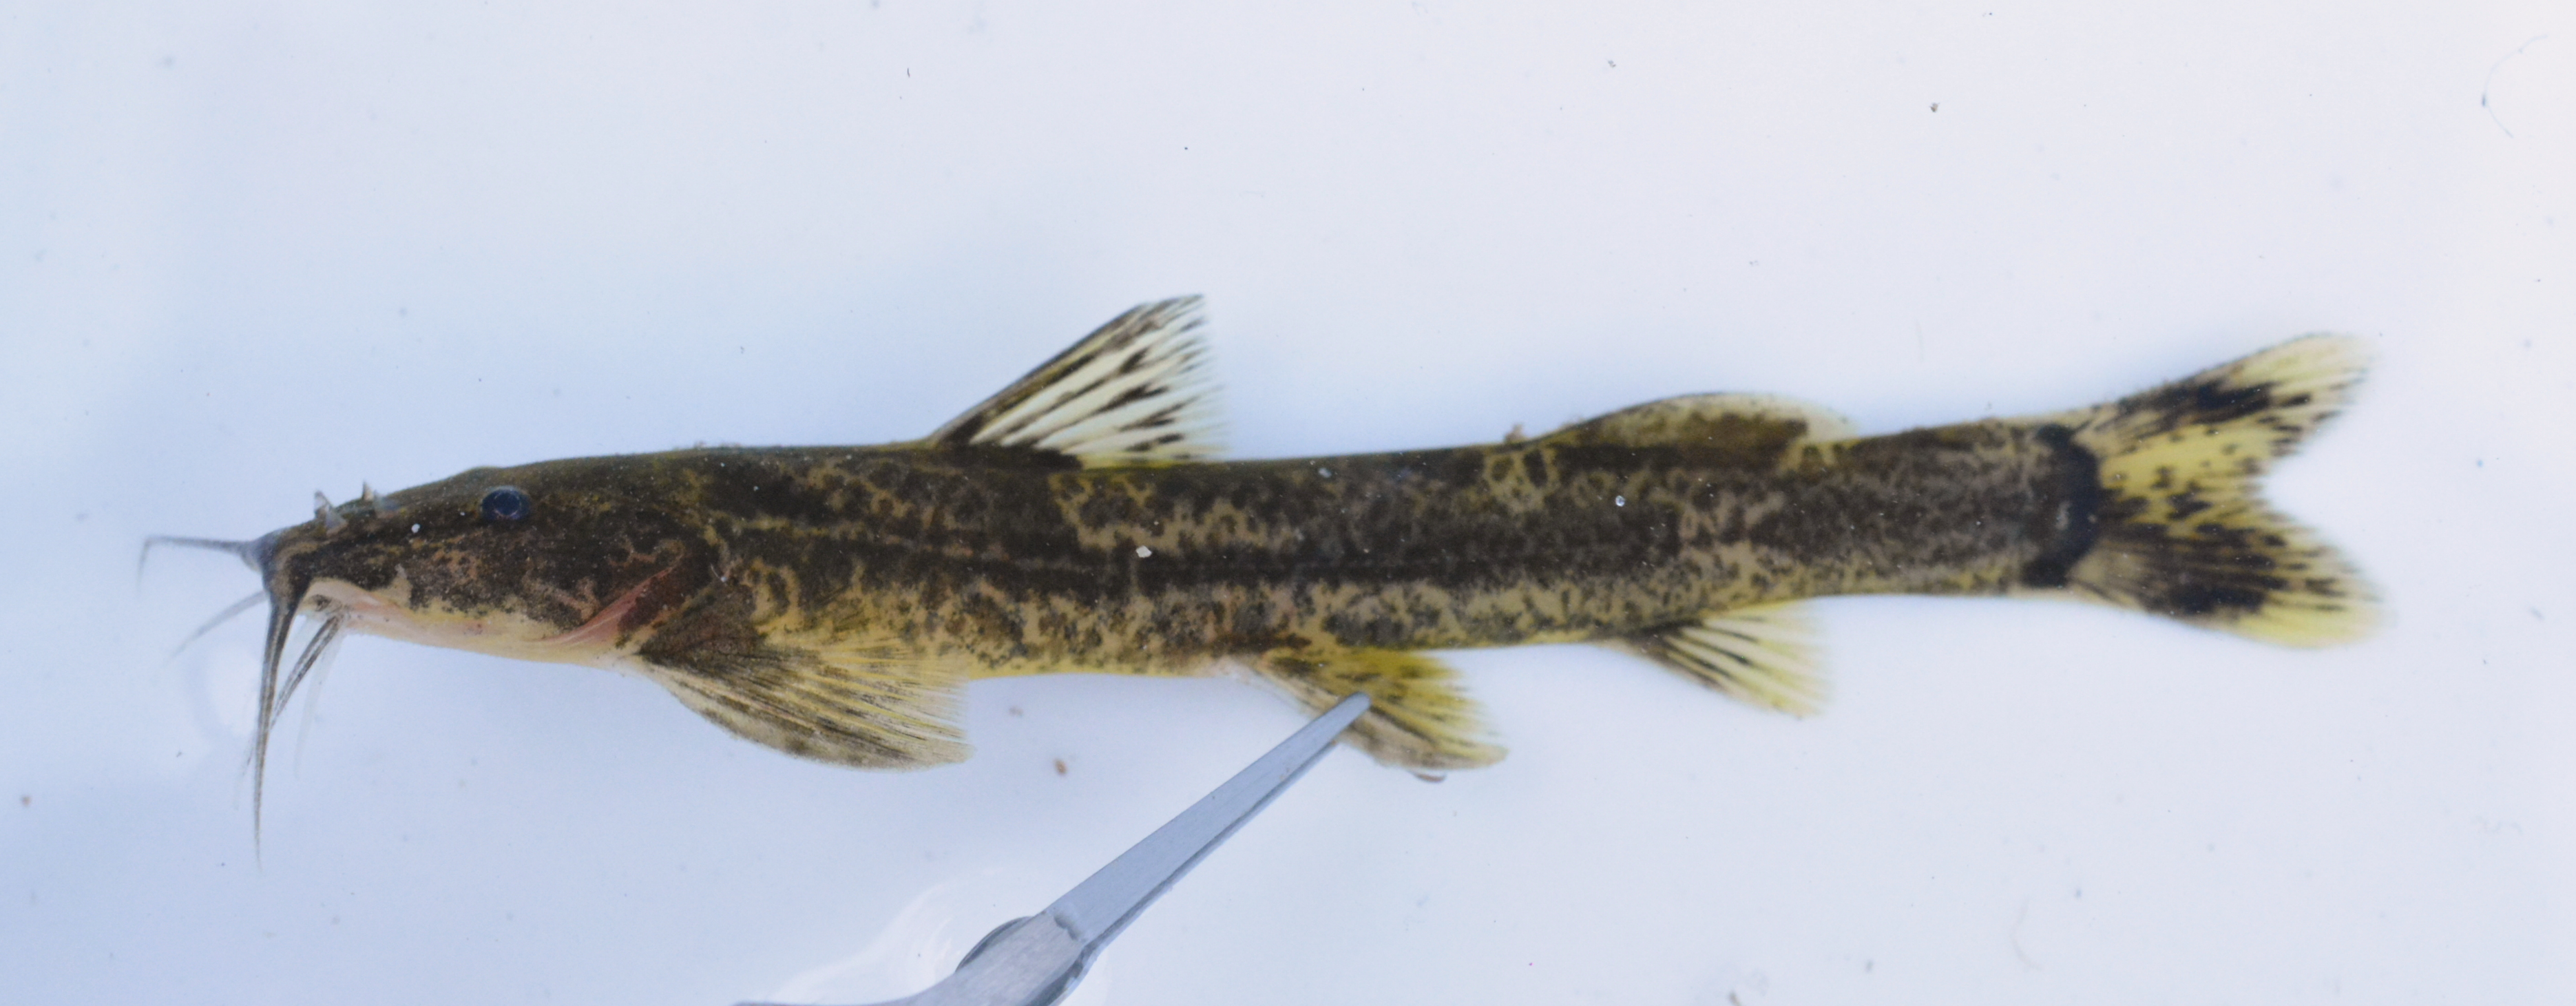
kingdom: Animalia
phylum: Chordata
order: Siluriformes
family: Amphiliidae
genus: Amphilius
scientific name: Amphilius uranoscopus
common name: Stargazer mountain catfish
